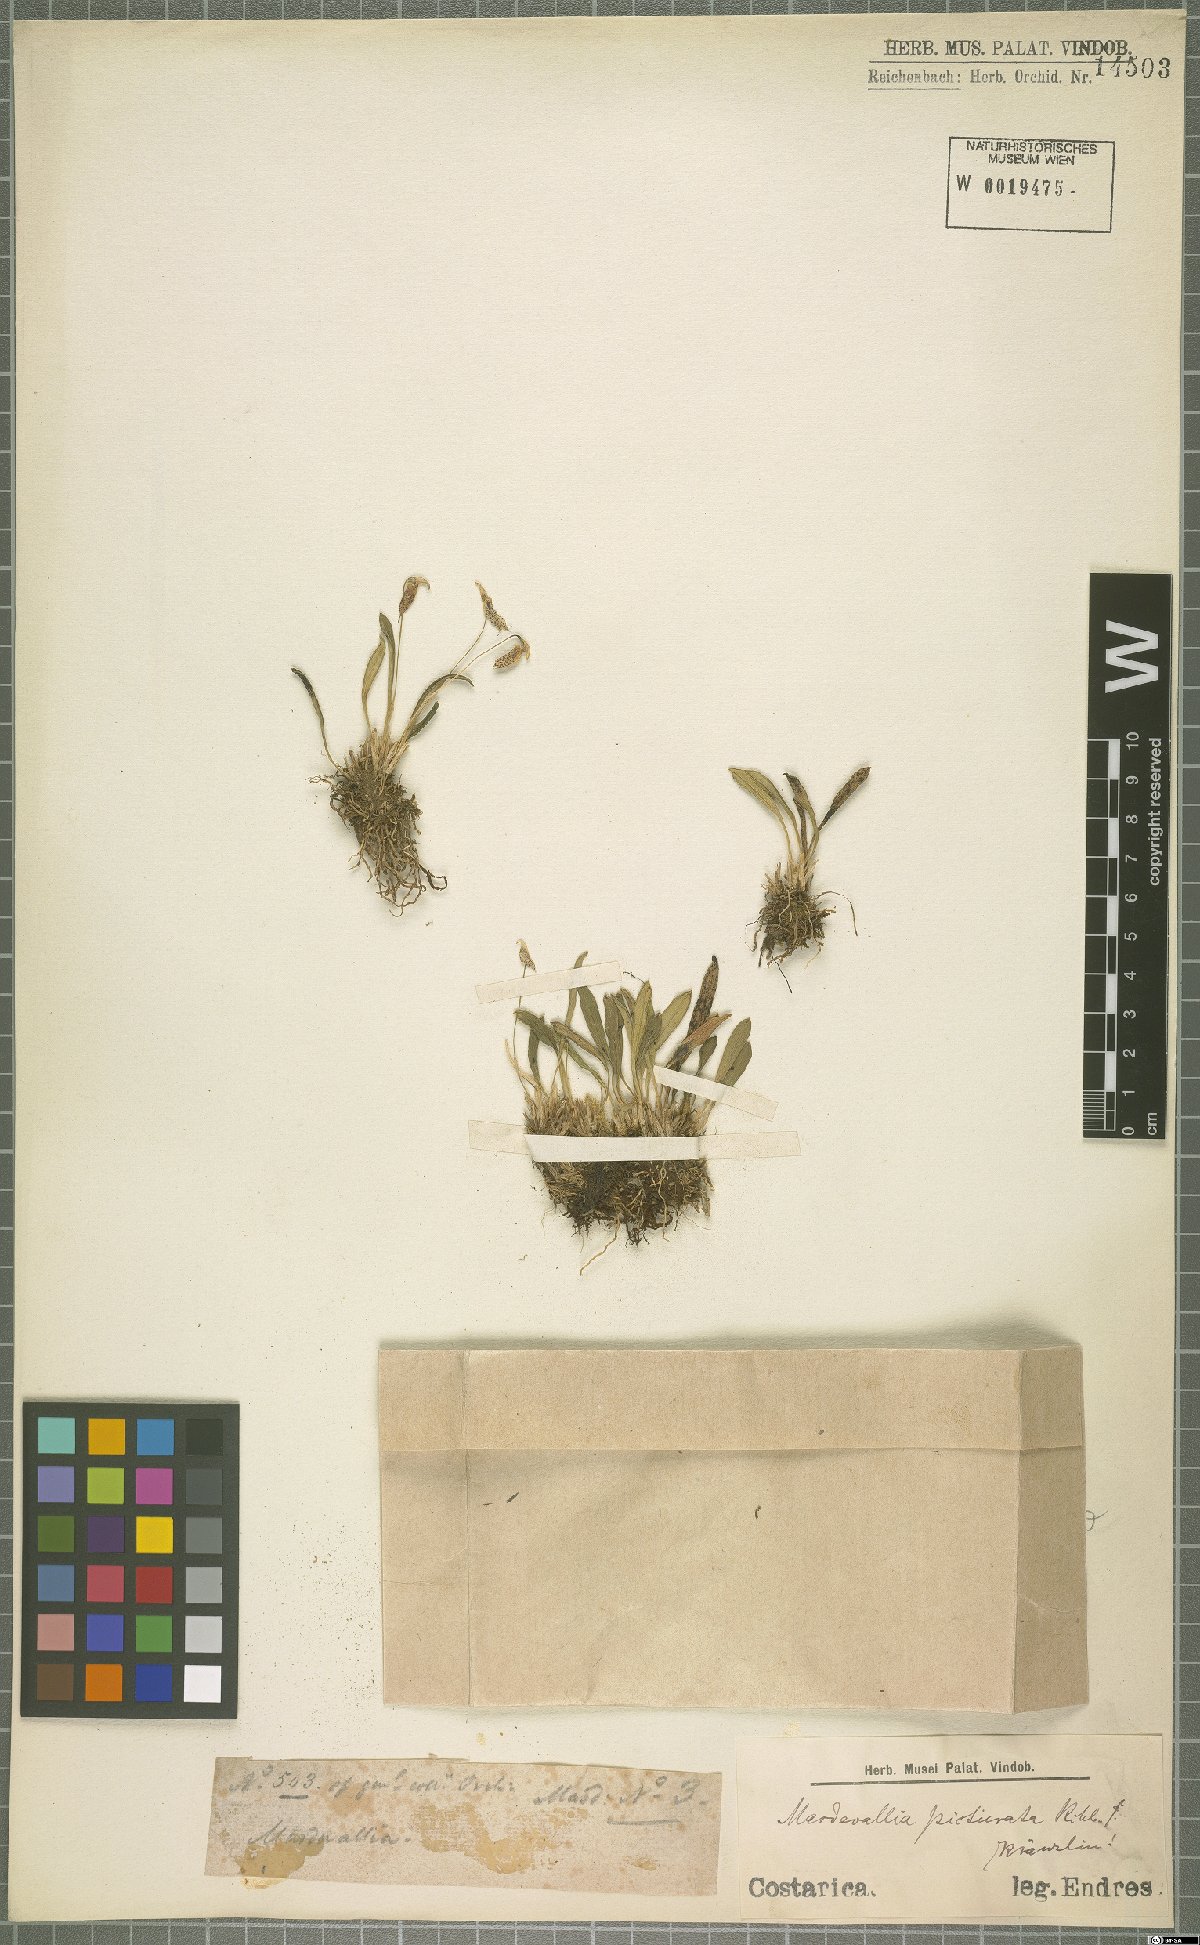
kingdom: Plantae
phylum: Tracheophyta
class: Liliopsida
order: Asparagales
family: Orchidaceae
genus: Masdevallia
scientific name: Masdevallia picturata
